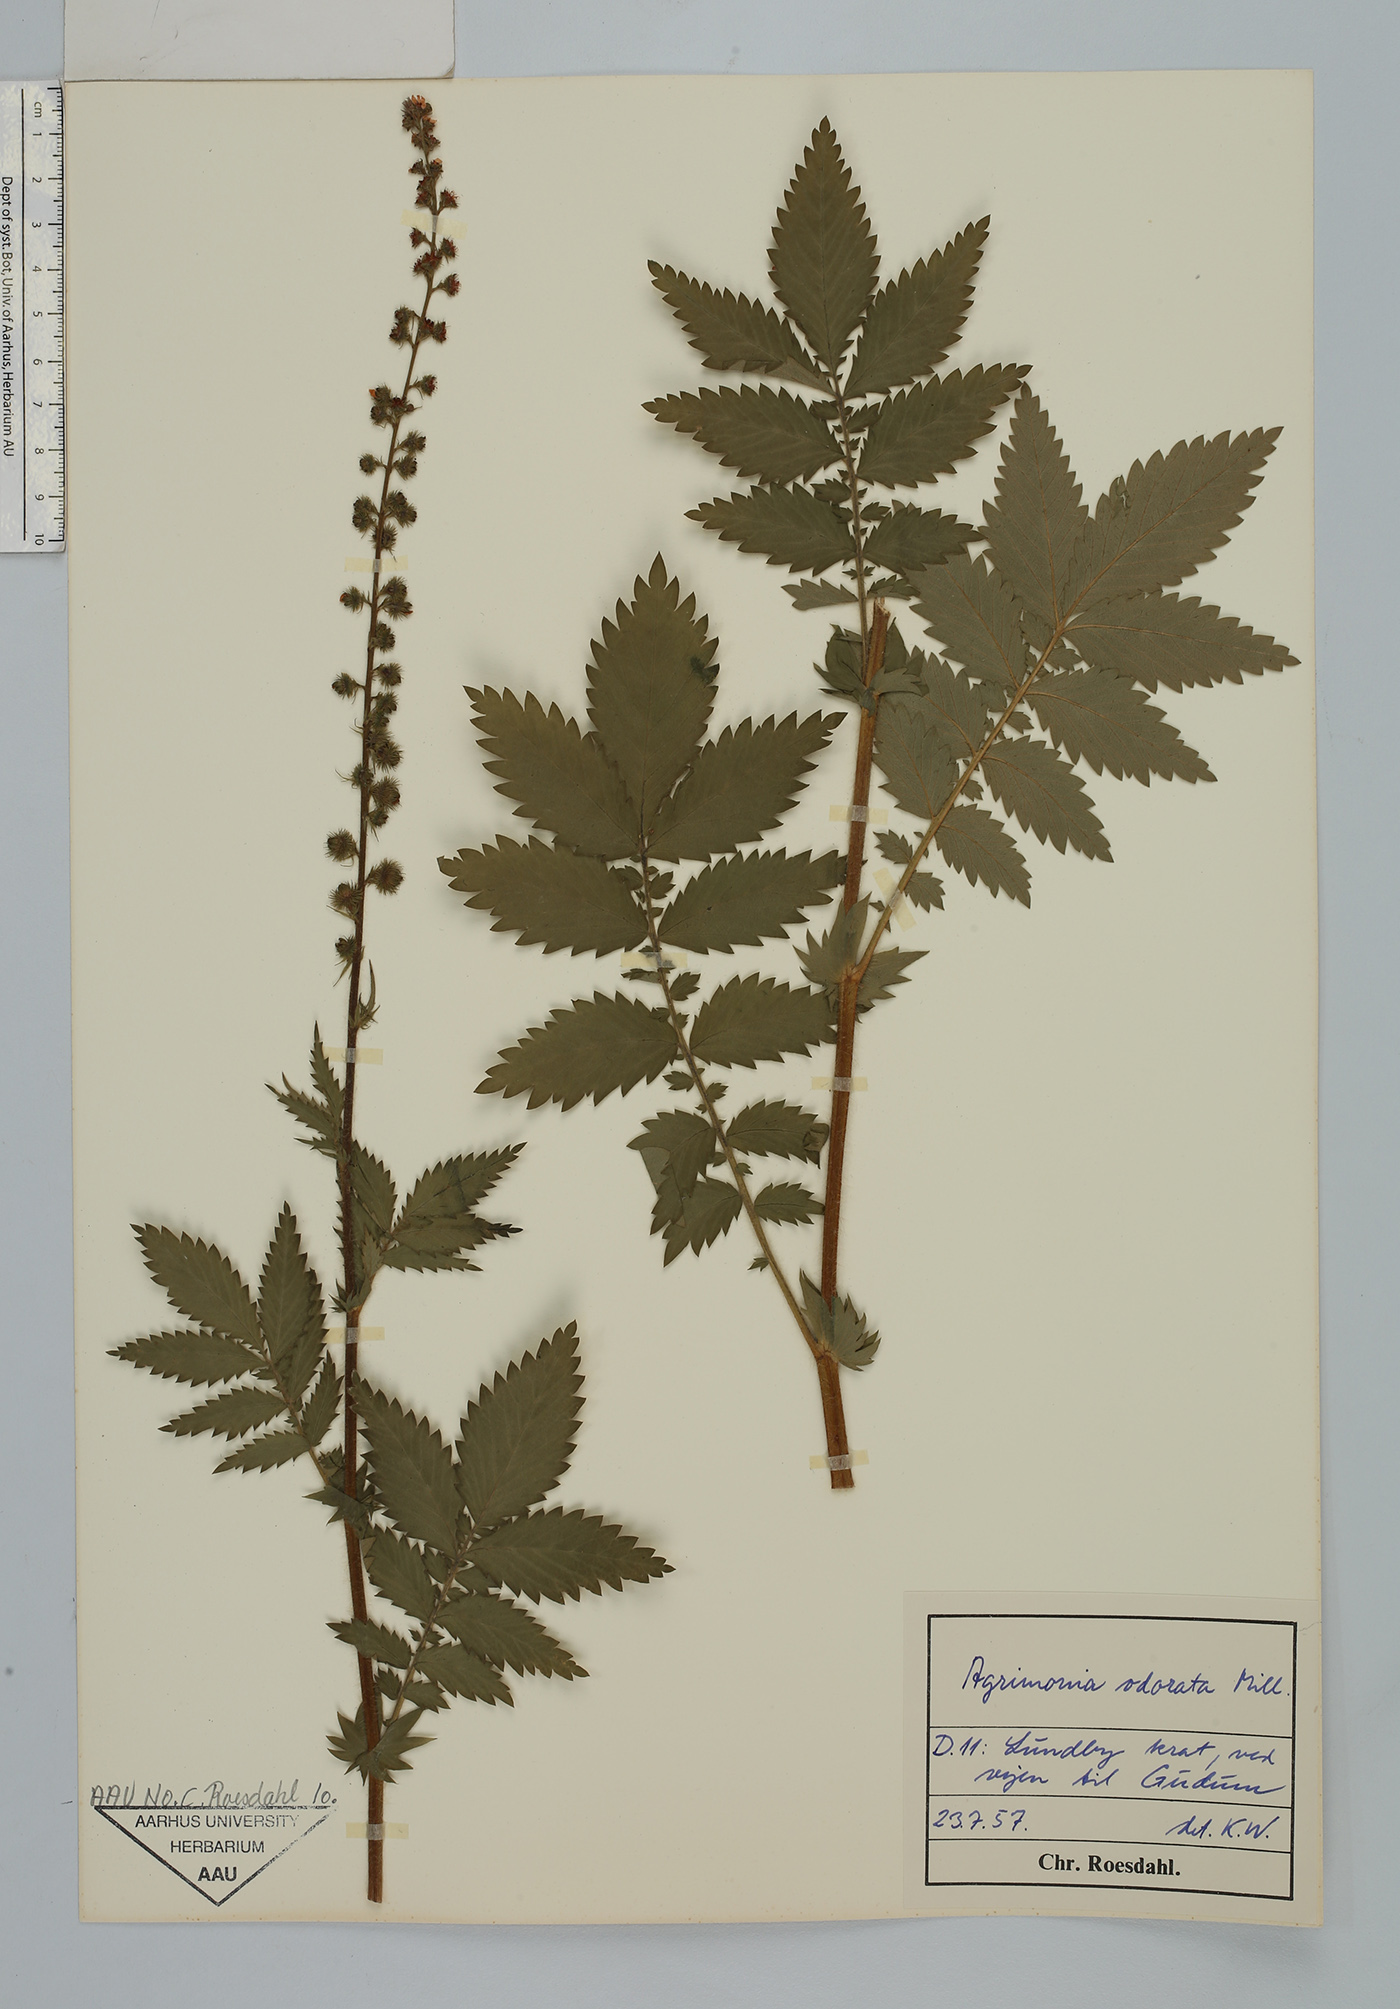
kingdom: Plantae
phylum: Tracheophyta
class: Magnoliopsida
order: Rosales
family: Rosaceae
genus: Agrimonia
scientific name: Agrimonia repens
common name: Creeping agrimony
